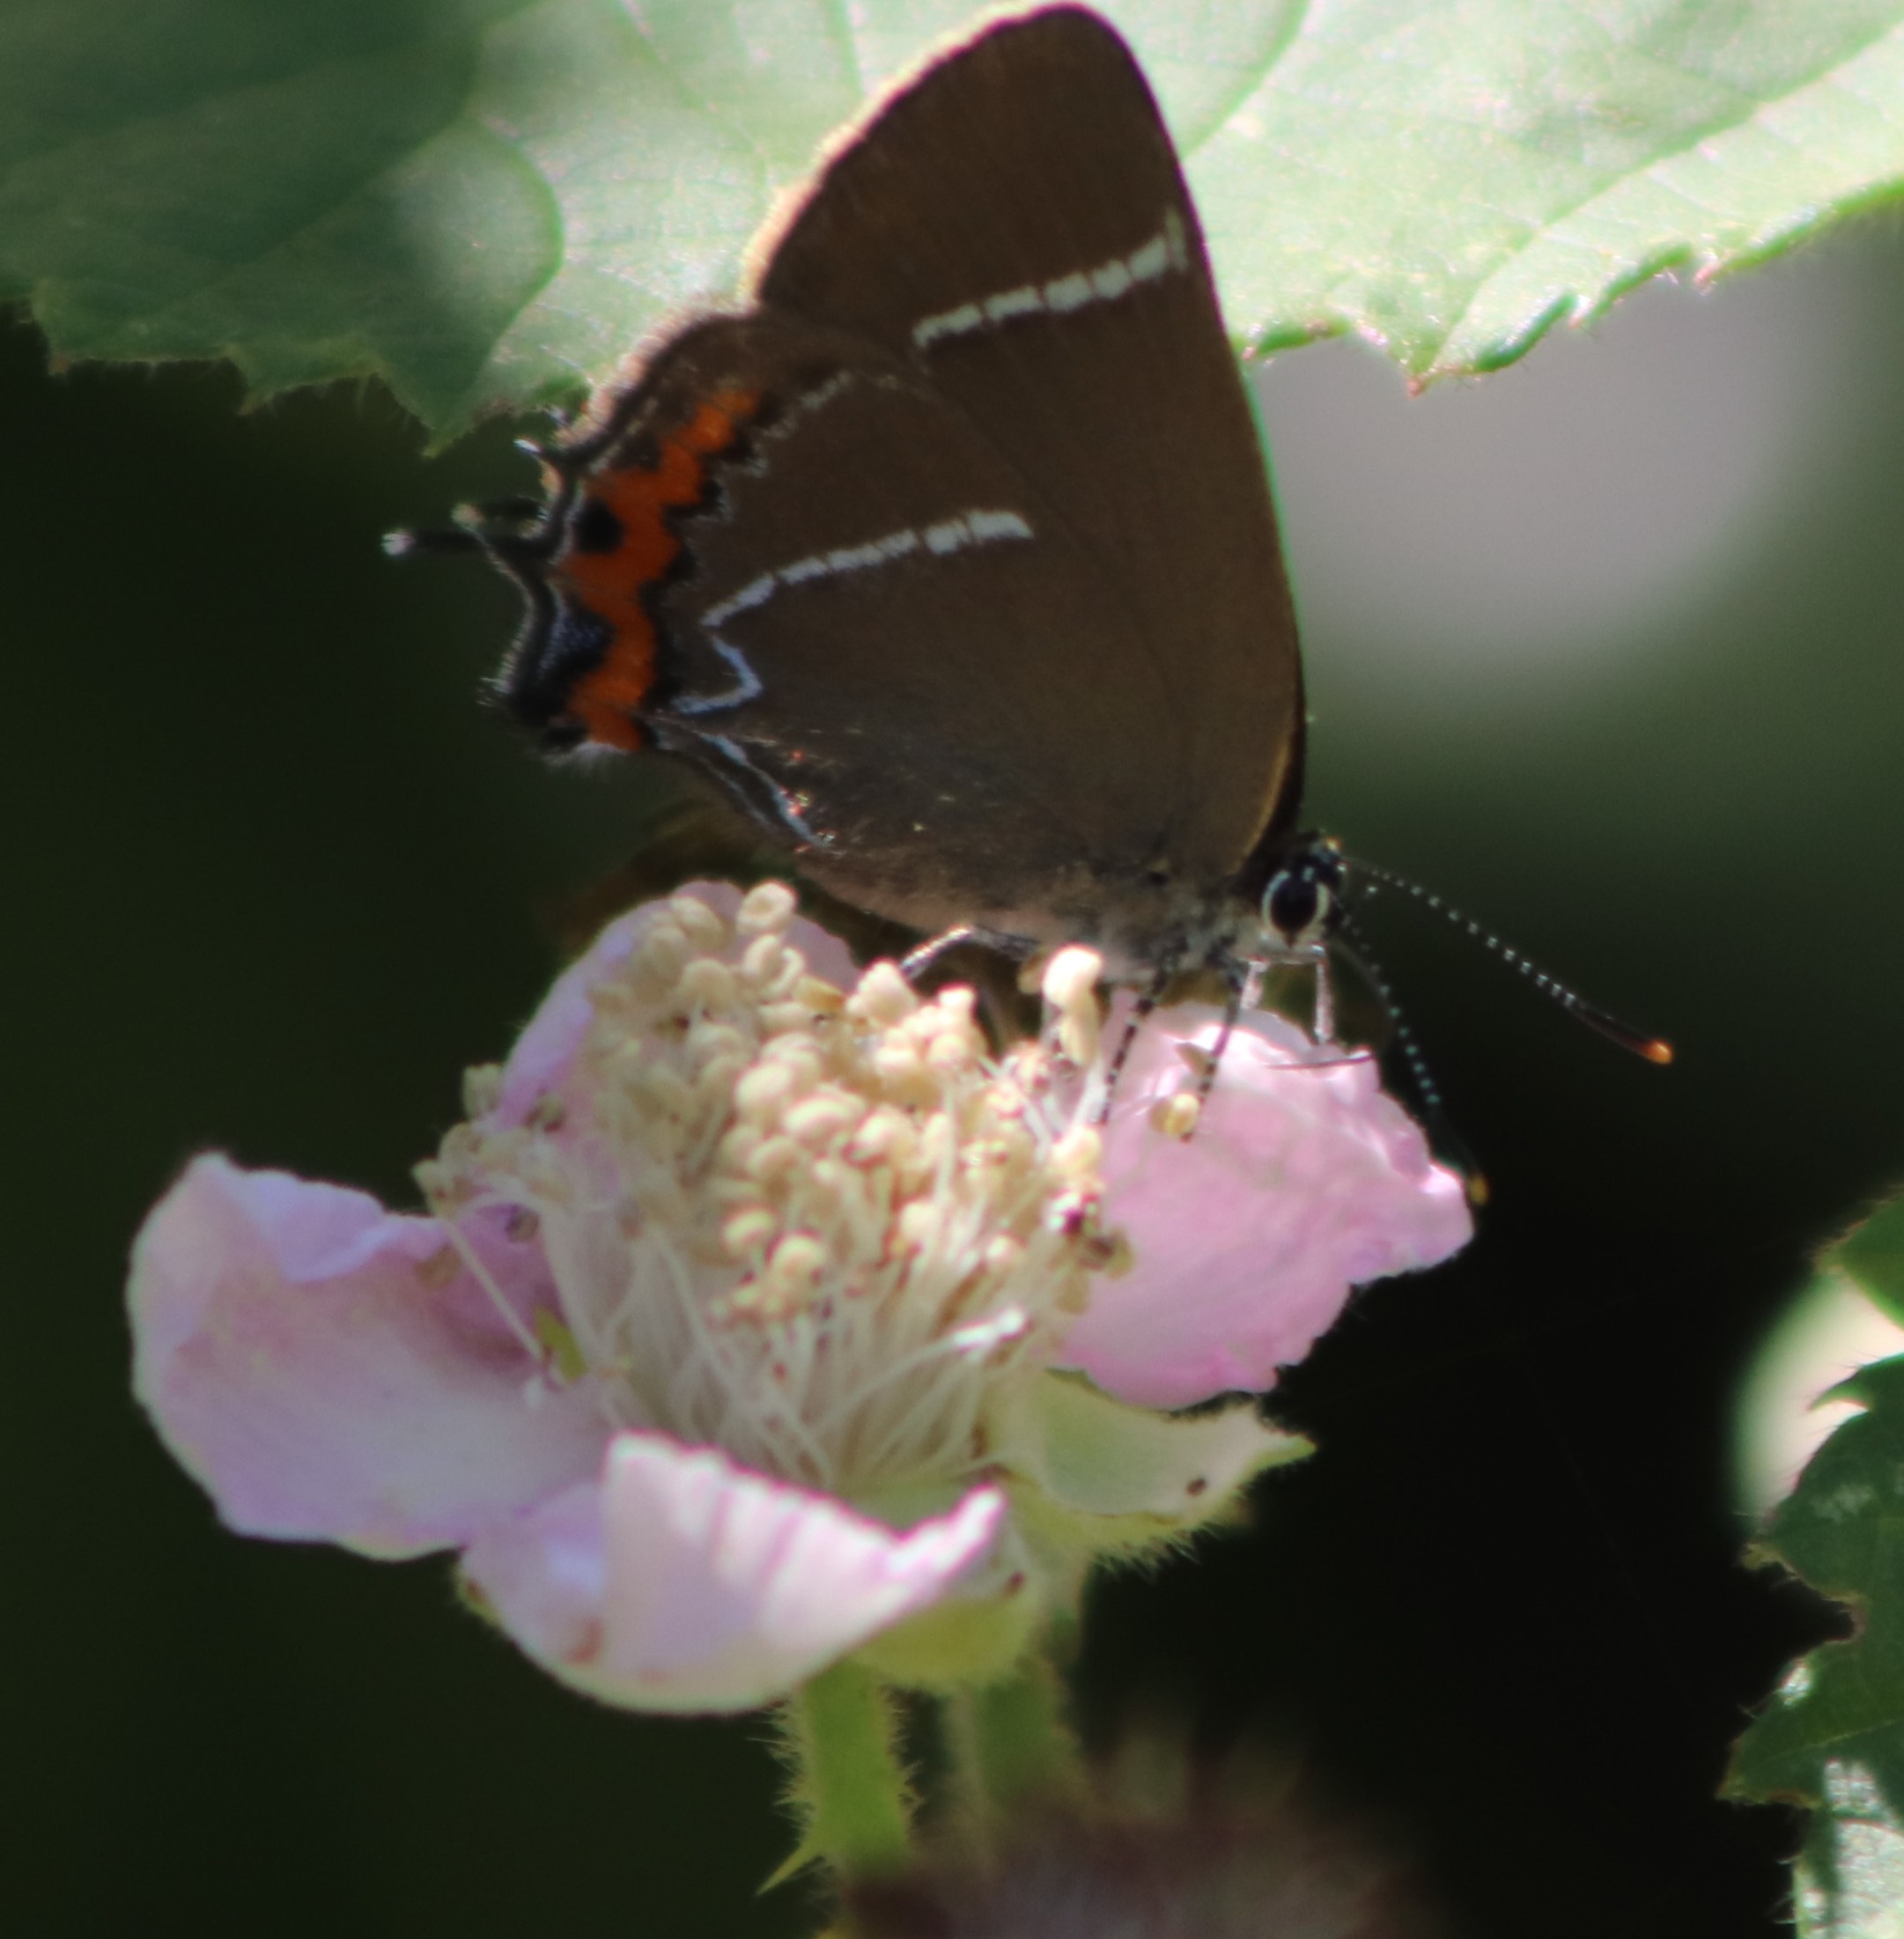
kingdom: Animalia
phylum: Arthropoda
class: Insecta
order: Lepidoptera
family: Lycaenidae
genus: Satyrium
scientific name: Satyrium w-album
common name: Det hvide W
